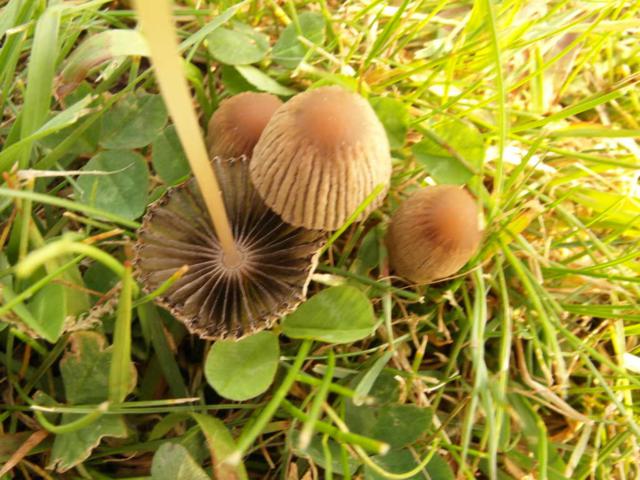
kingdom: Fungi
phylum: Basidiomycota
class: Agaricomycetes
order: Agaricales
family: Psathyrellaceae
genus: Parasola
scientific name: Parasola schroeteri
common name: bredsporet hjulhat
